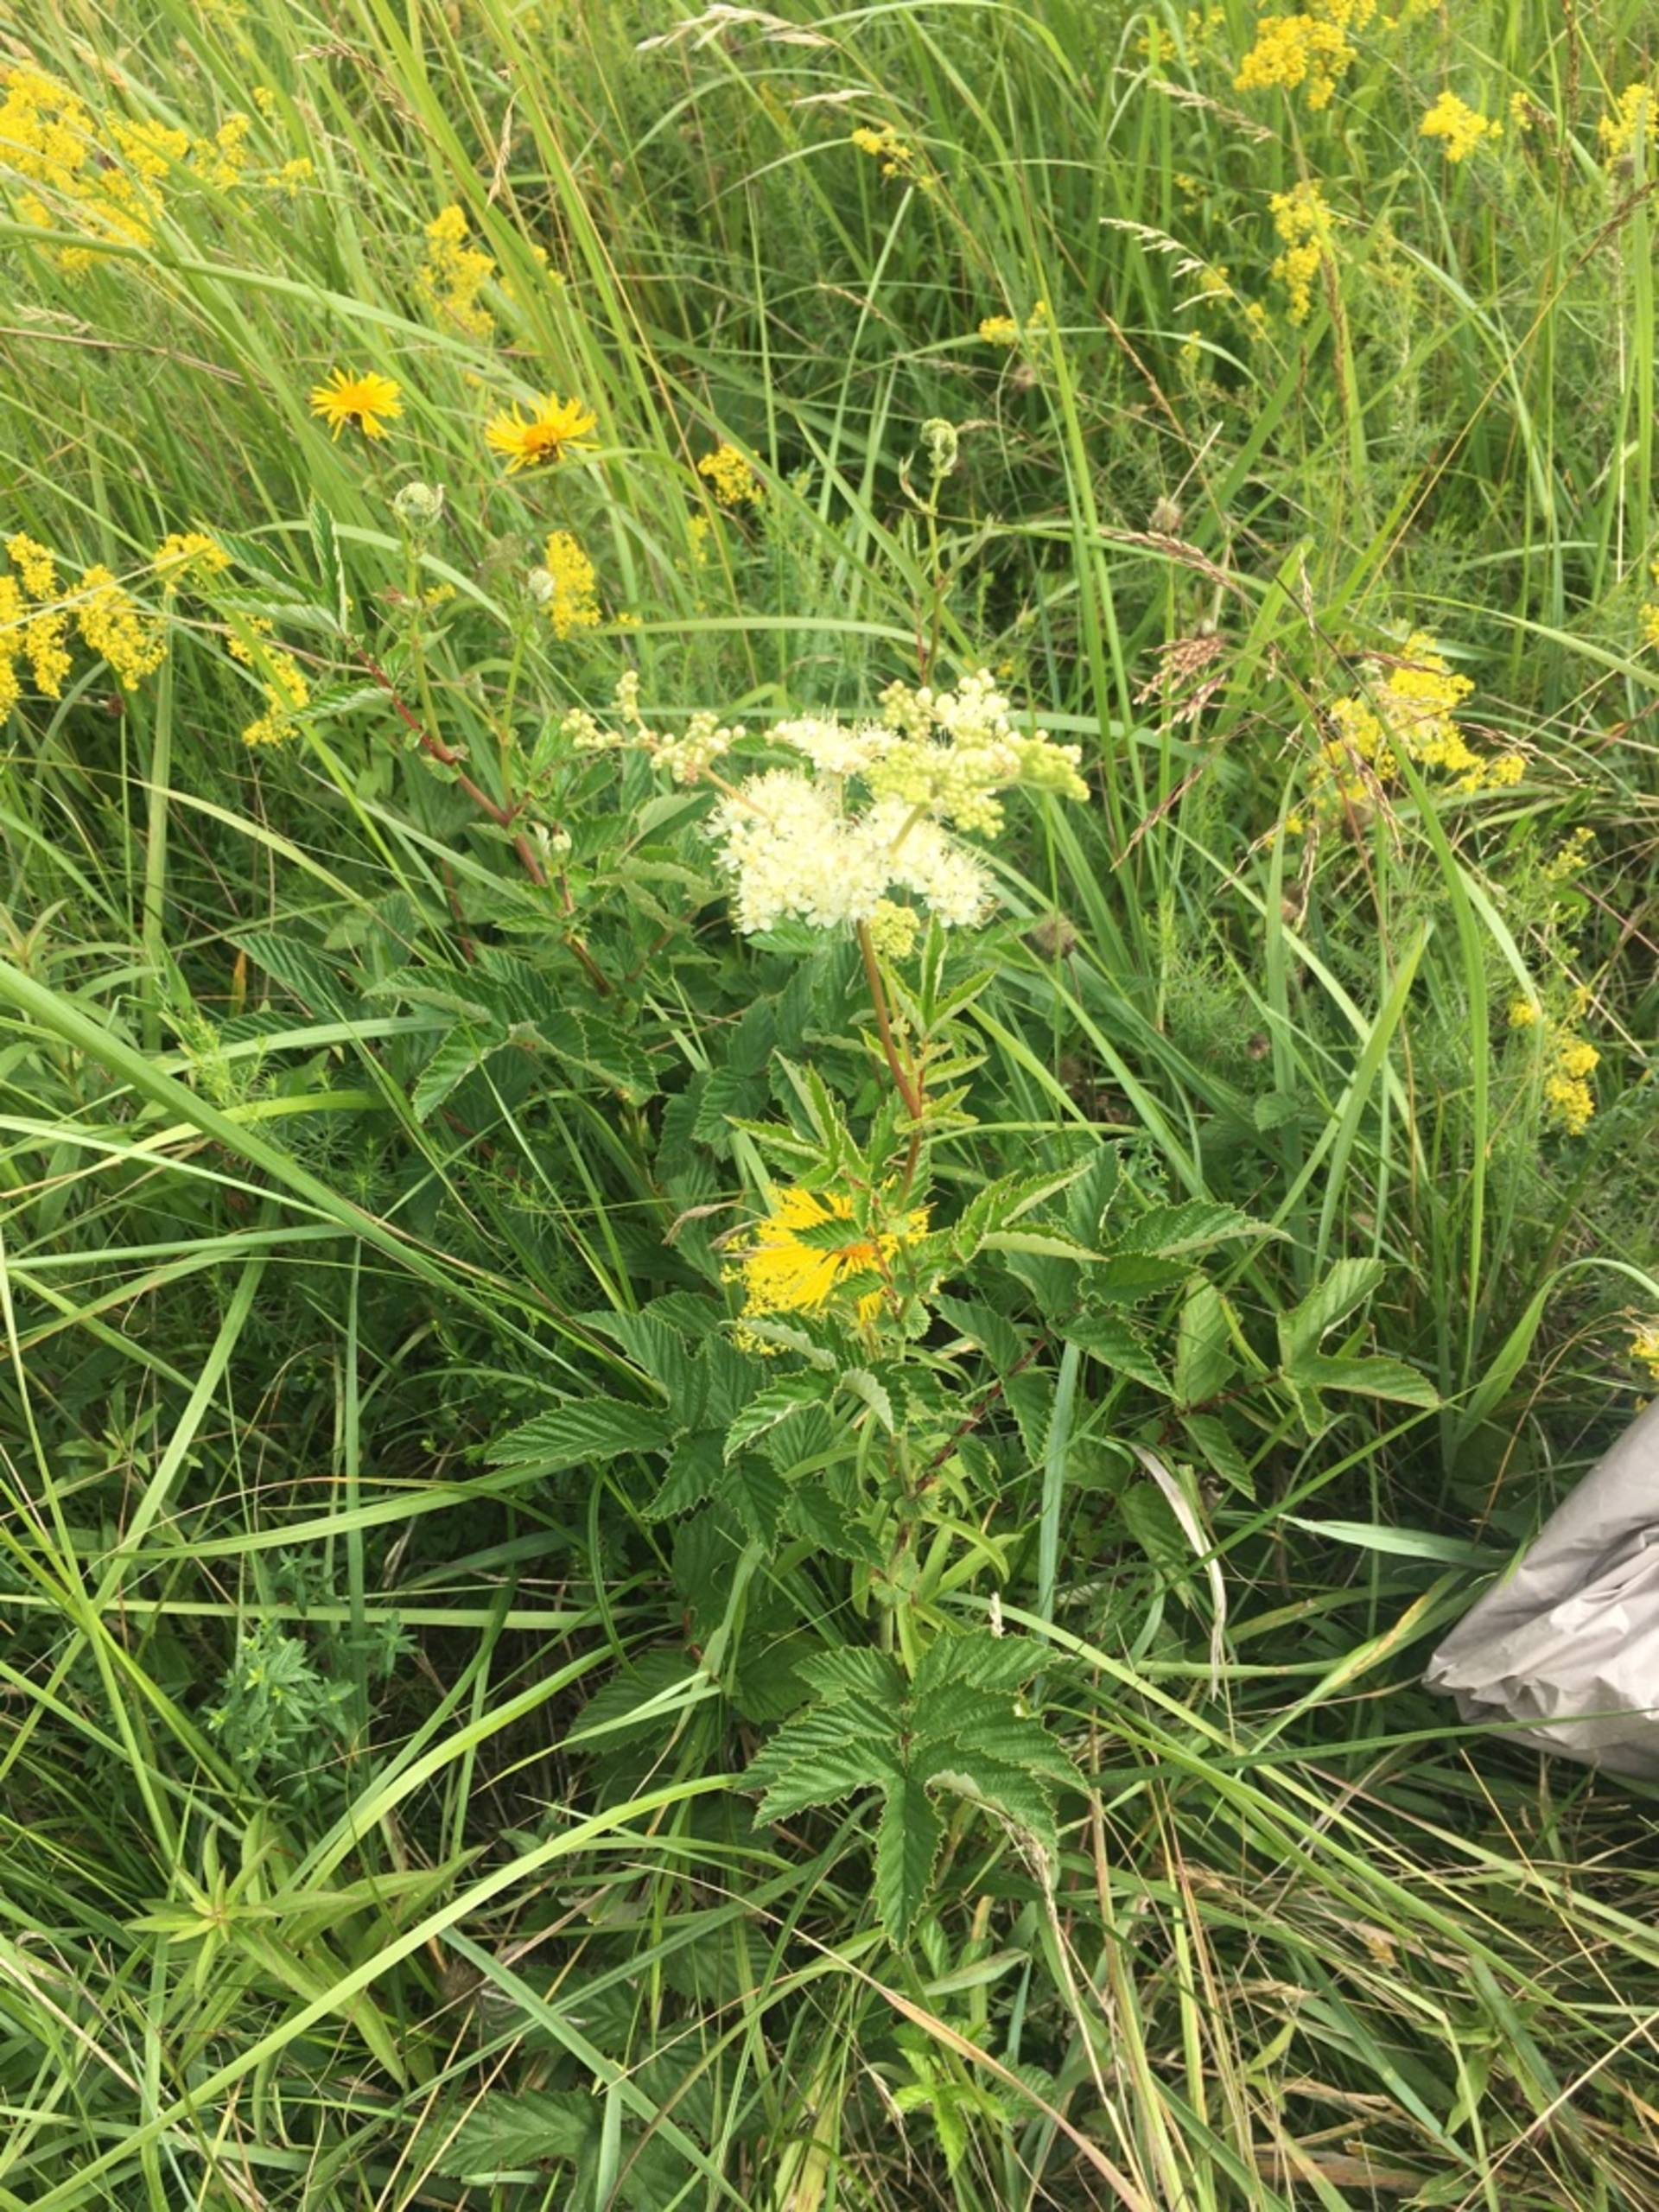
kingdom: Plantae
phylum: Tracheophyta
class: Magnoliopsida
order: Rosales
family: Rosaceae
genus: Filipendula
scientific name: Filipendula ulmaria
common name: Almindelig mjødurt
